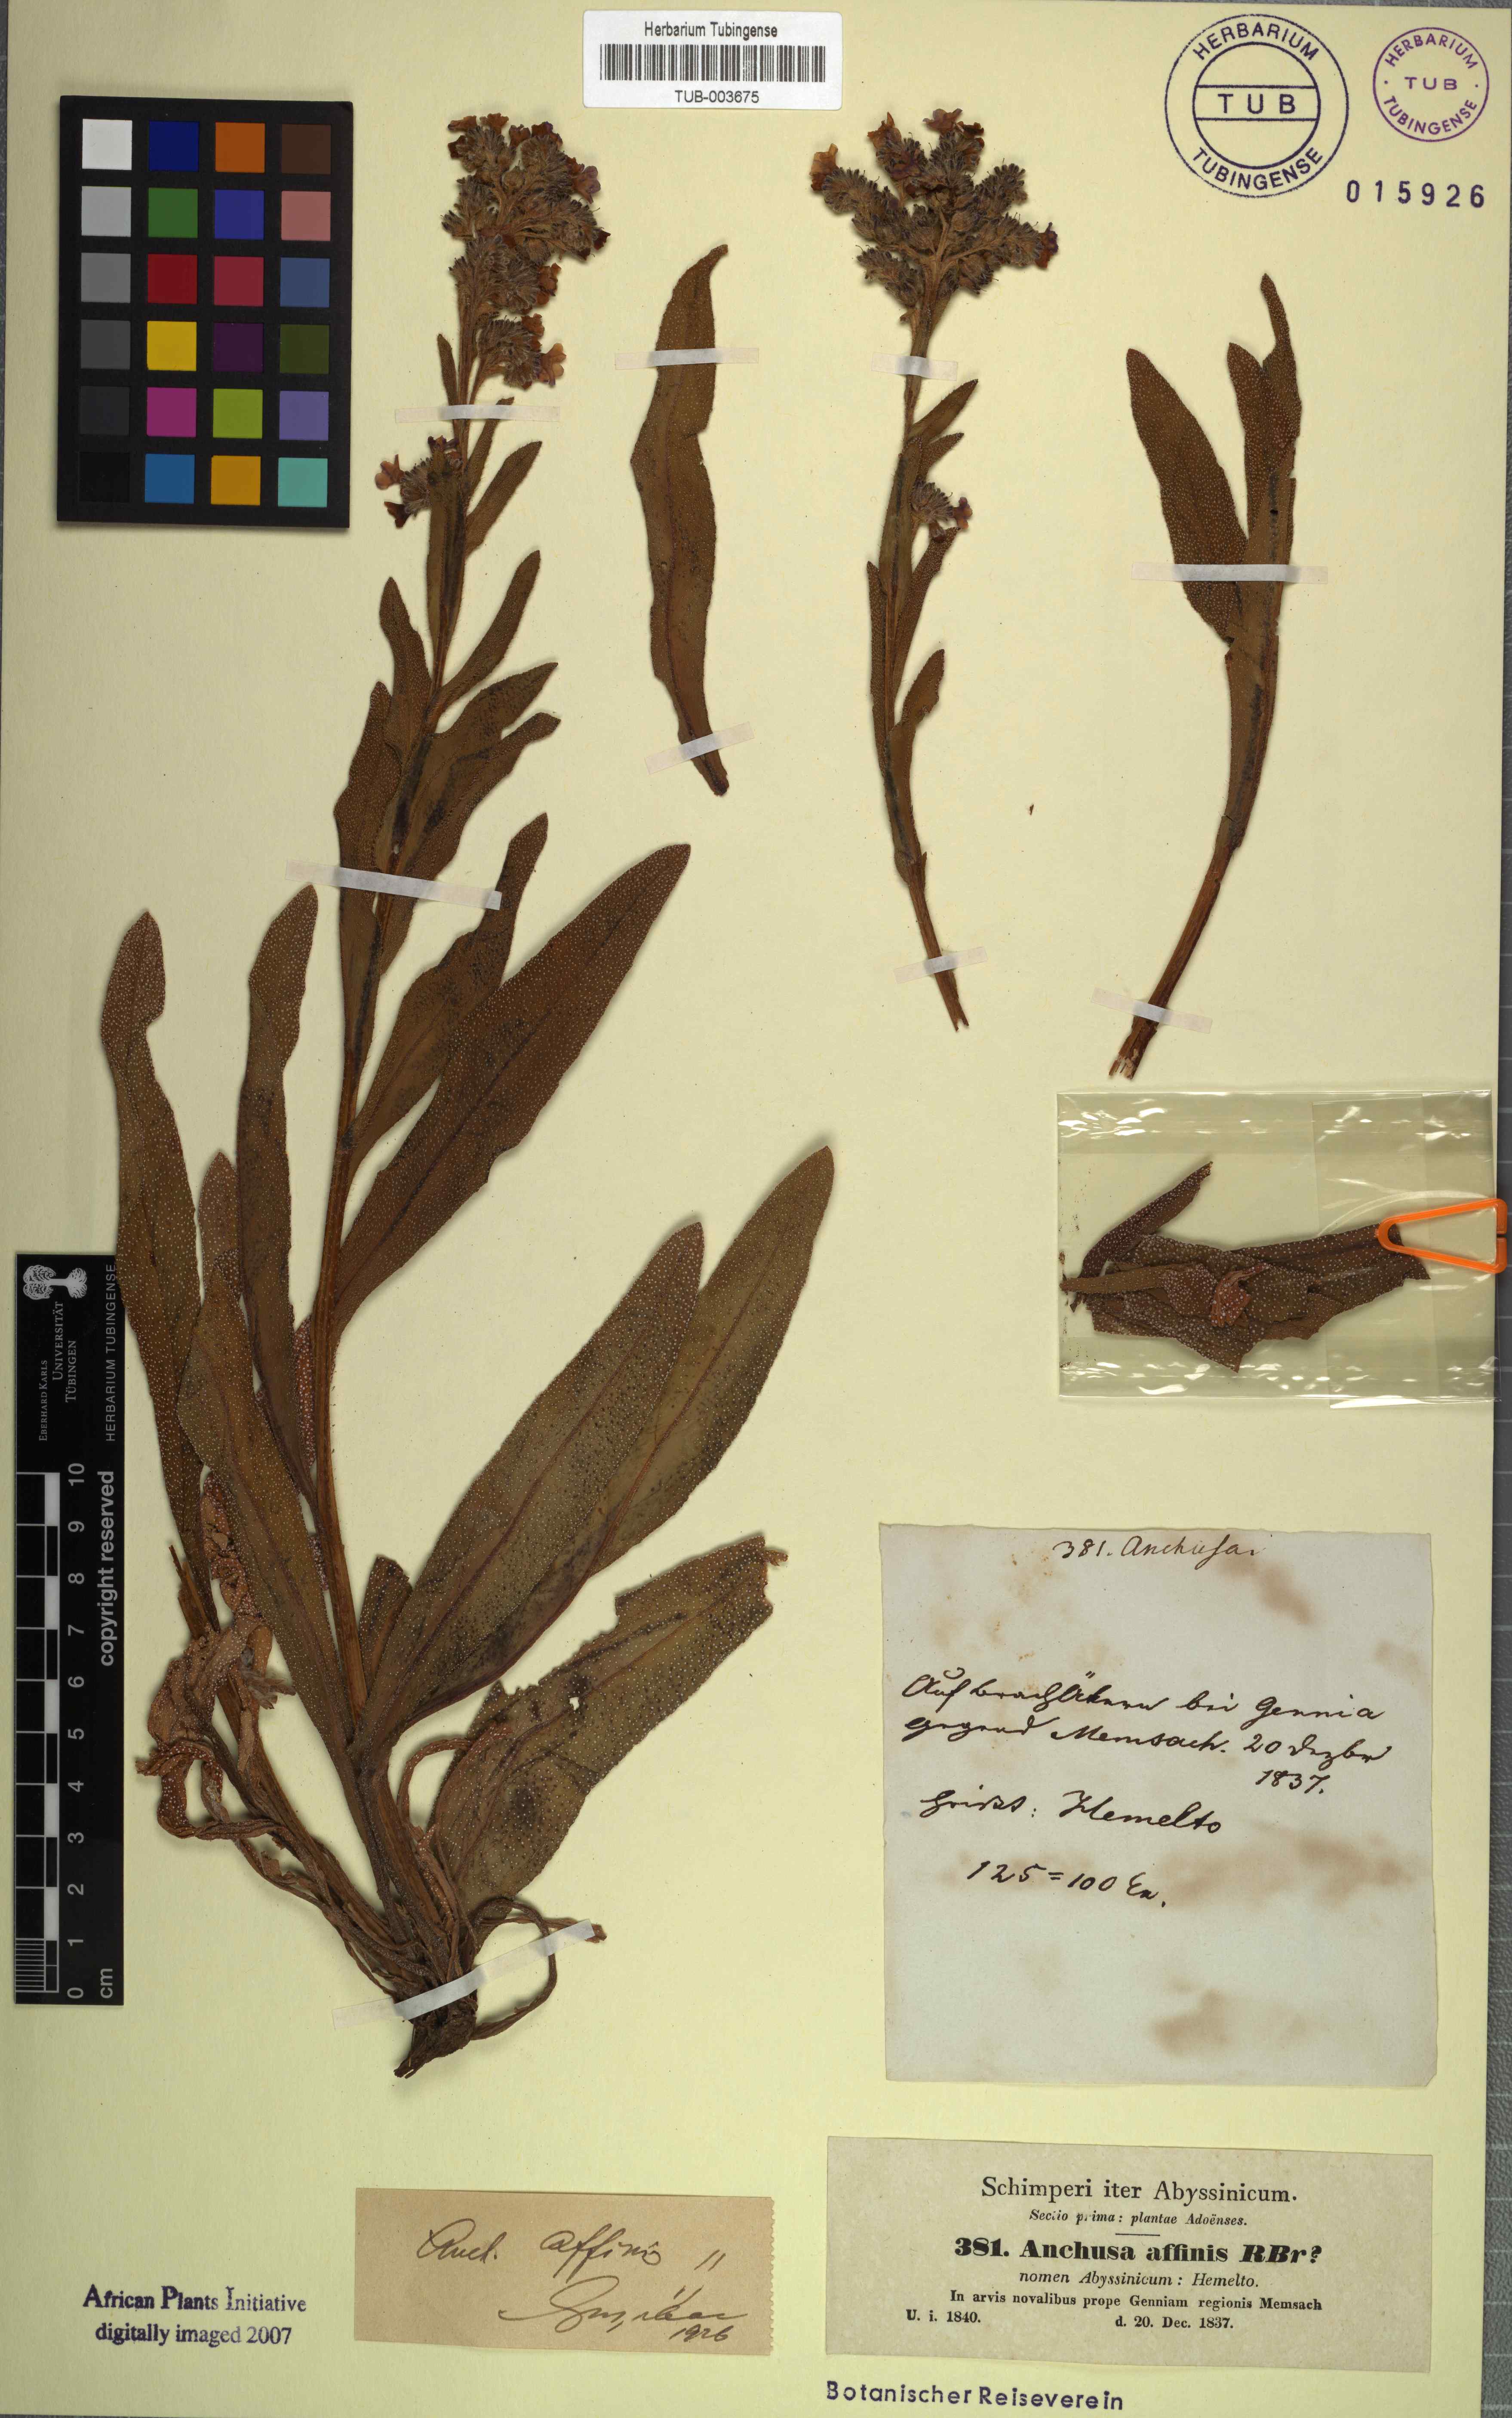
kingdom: Plantae
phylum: Tracheophyta
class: Magnoliopsida
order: Boraginales
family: Boraginaceae
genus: Anchusa
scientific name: Anchusa affinis
